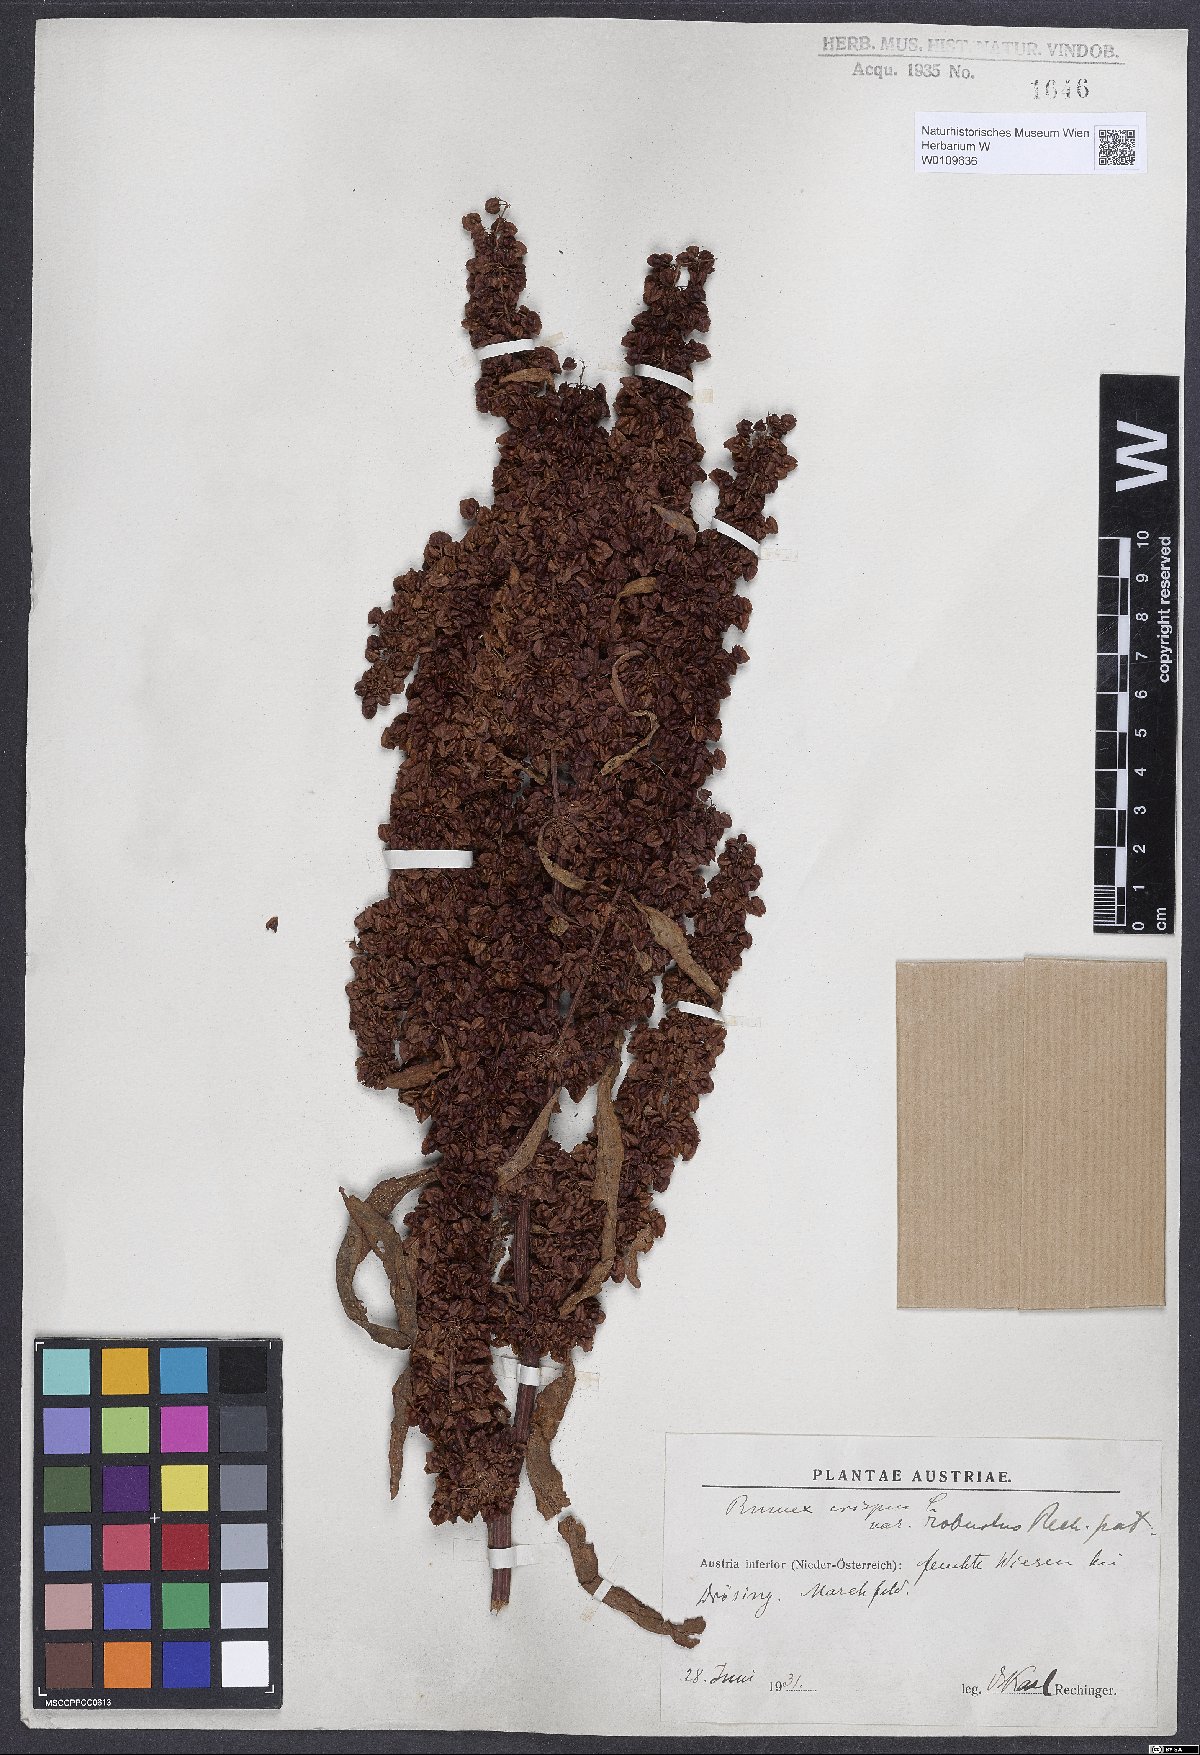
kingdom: Plantae
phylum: Tracheophyta
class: Magnoliopsida
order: Caryophyllales
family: Polygonaceae
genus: Rumex
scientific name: Rumex crispus
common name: Curled dock
